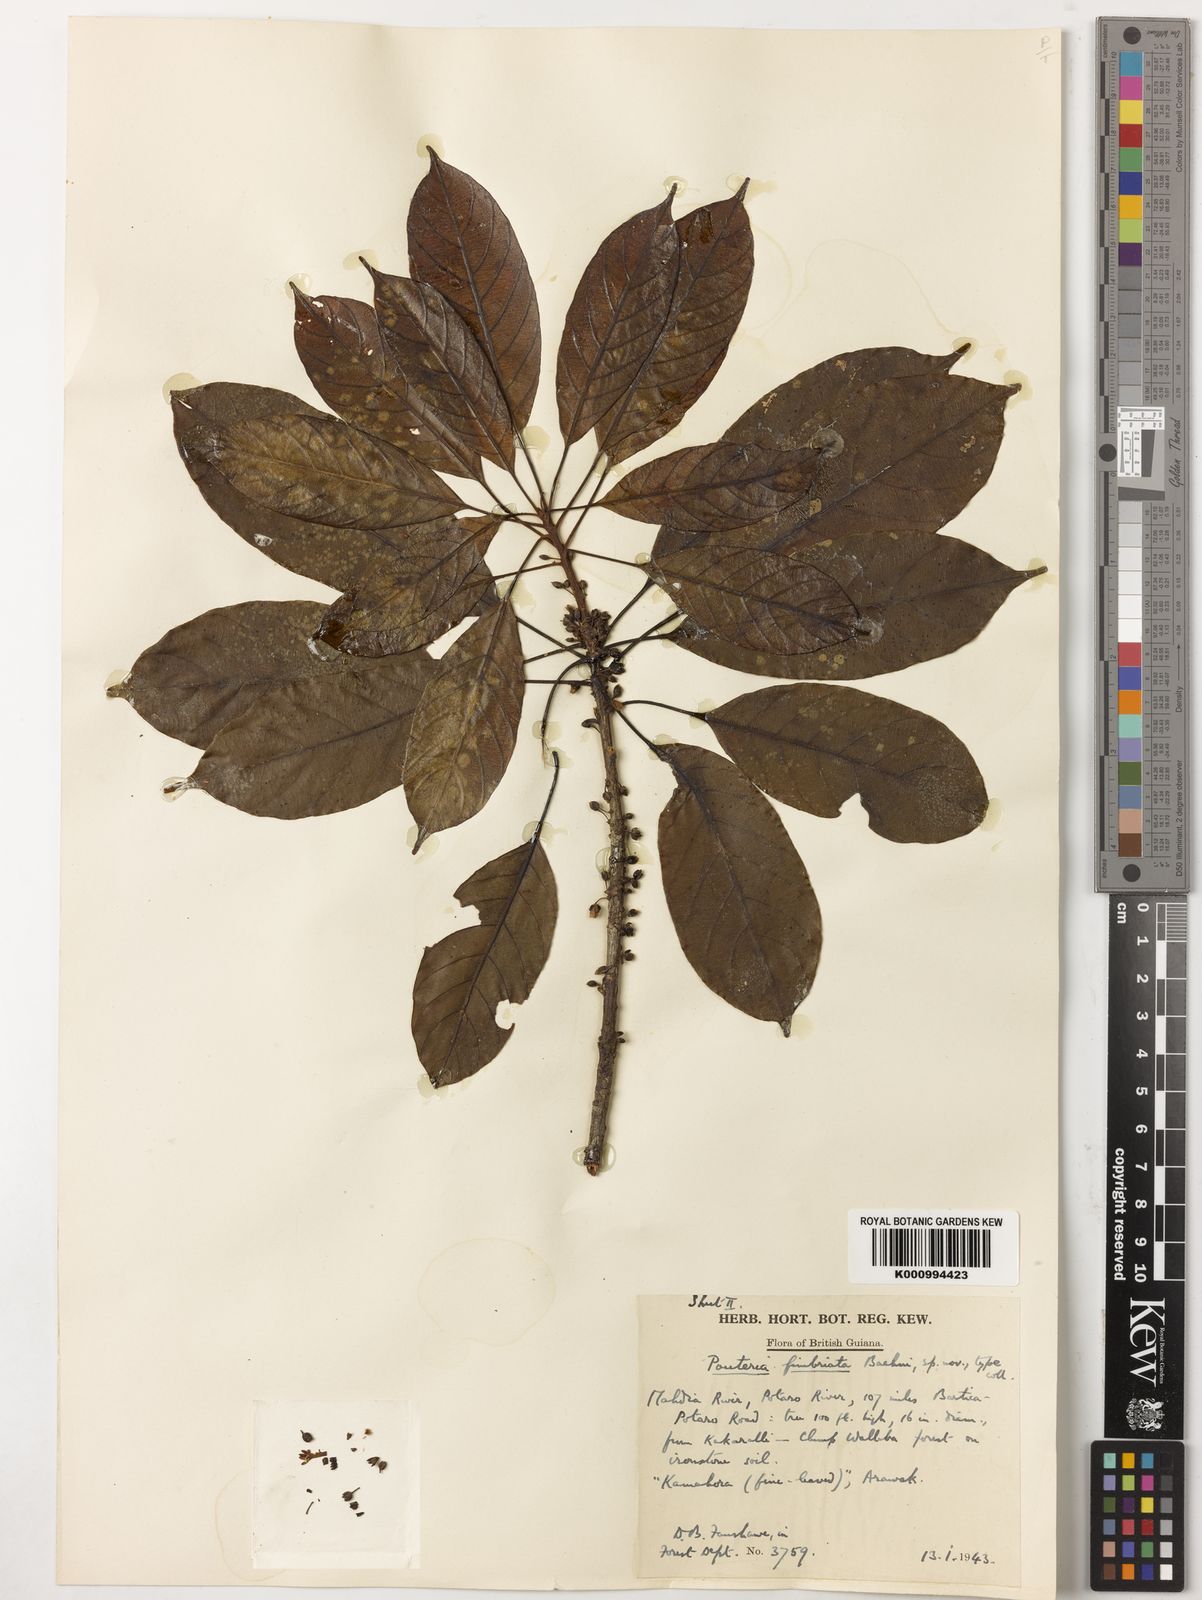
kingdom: Plantae
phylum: Tracheophyta
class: Magnoliopsida
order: Ericales
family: Sapotaceae
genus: Pouteria
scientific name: Pouteria fimbriata
